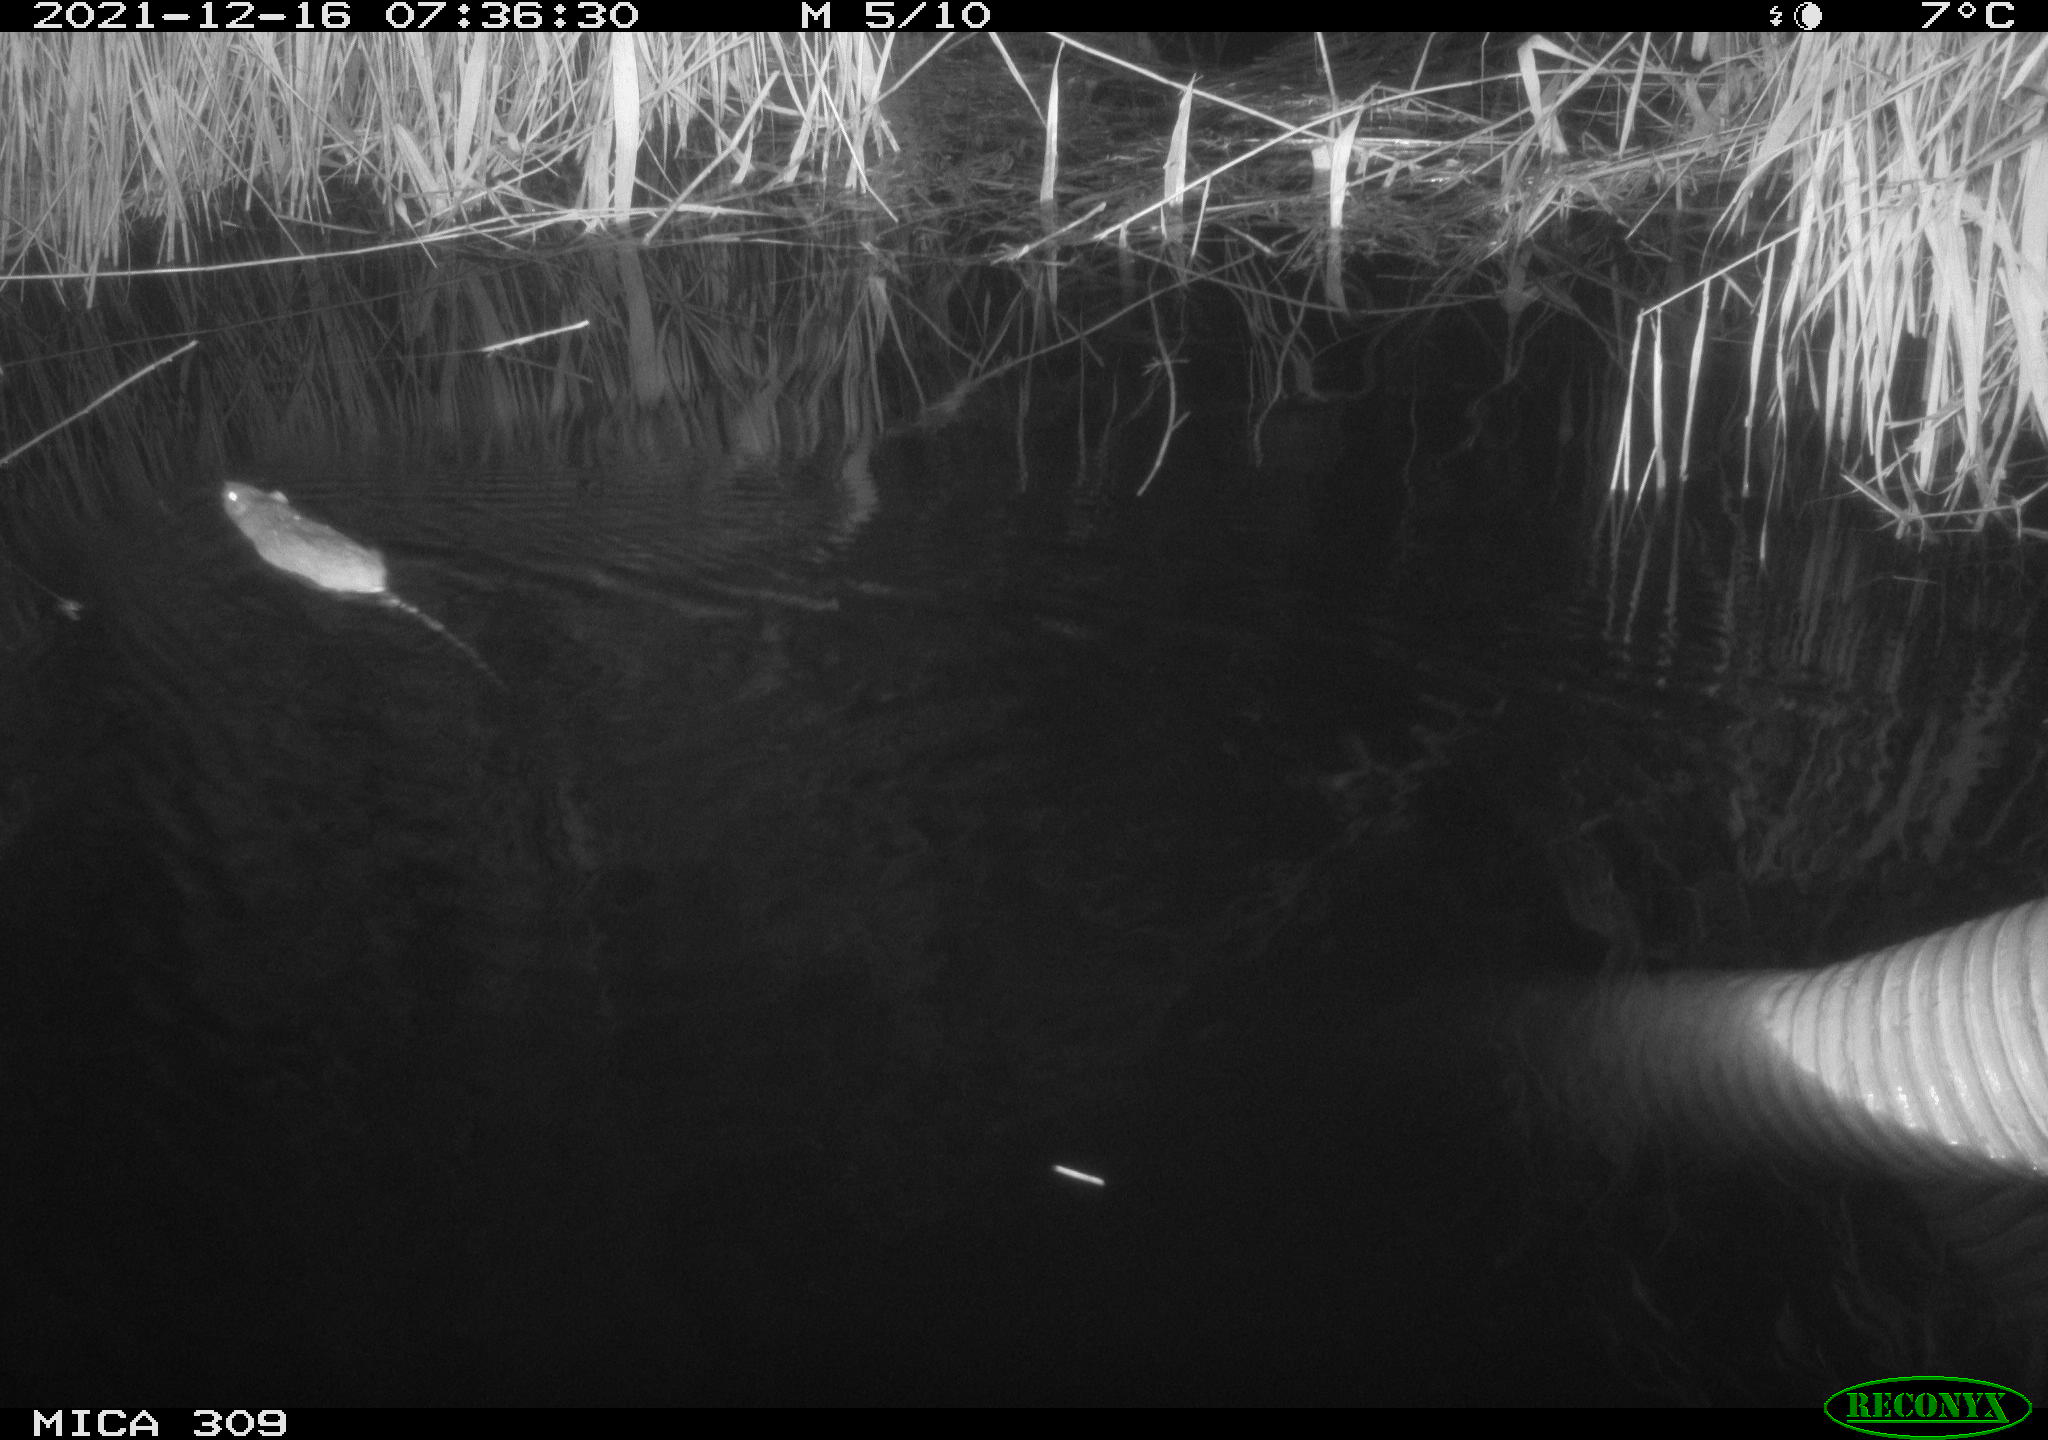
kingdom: Animalia
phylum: Chordata
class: Mammalia
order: Rodentia
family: Muridae
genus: Rattus
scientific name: Rattus norvegicus
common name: Brown rat
